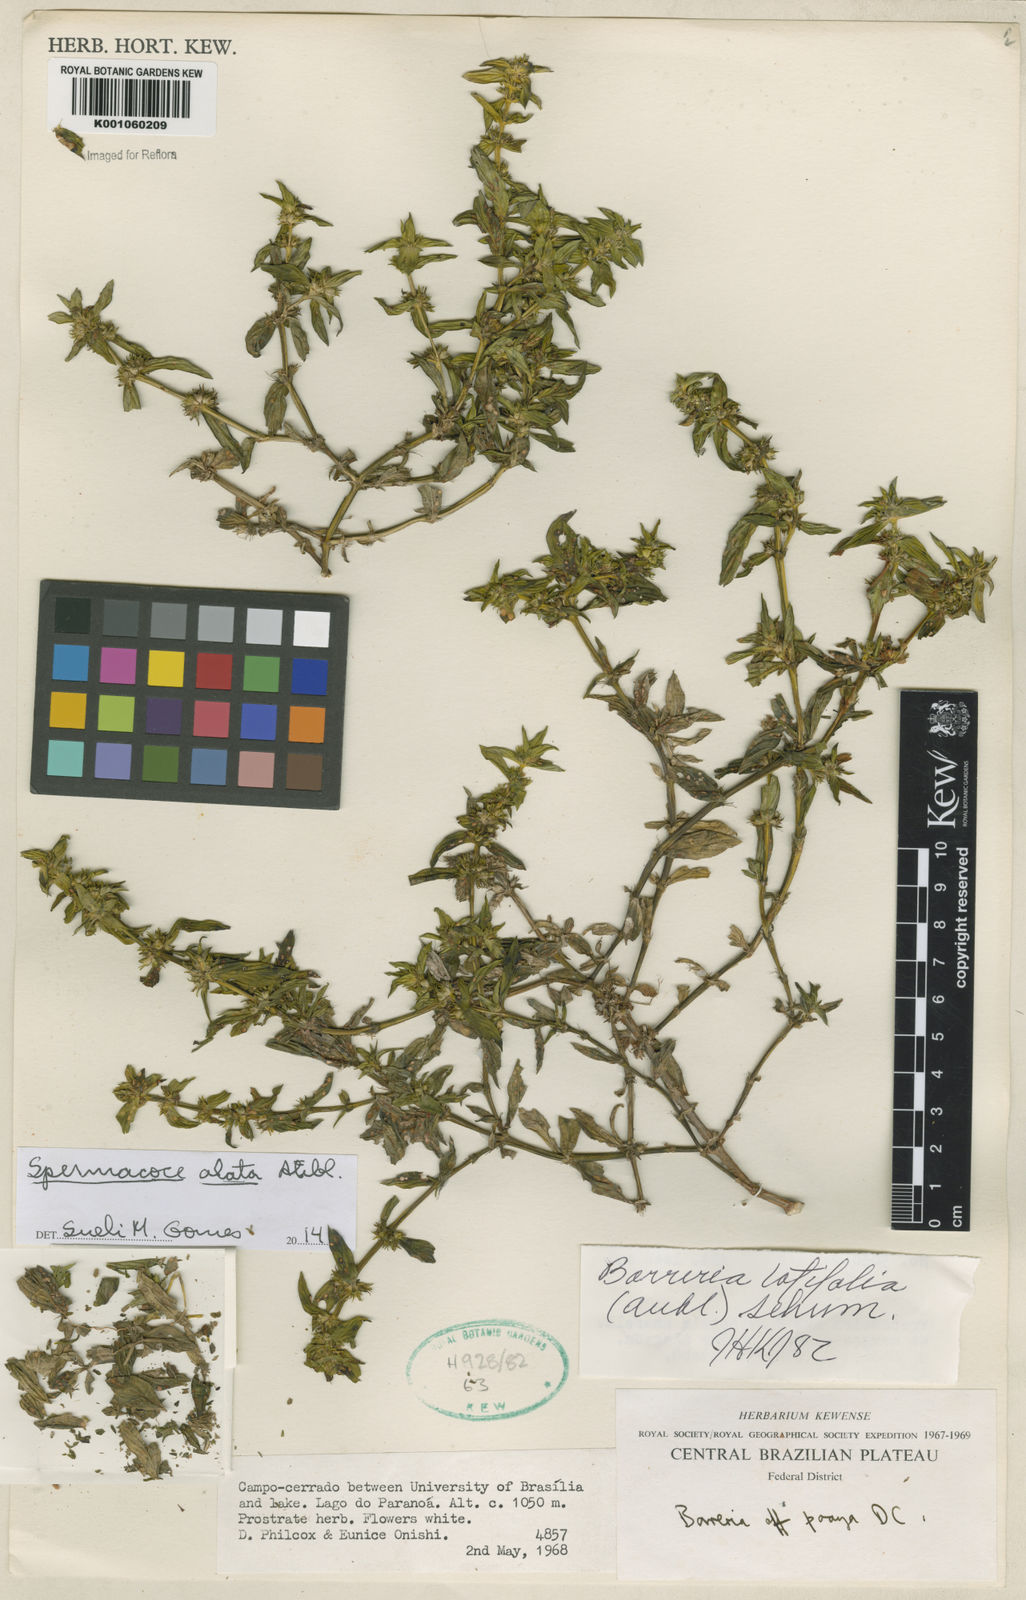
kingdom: Plantae
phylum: Tracheophyta
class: Magnoliopsida
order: Gentianales
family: Rubiaceae
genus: Spermacoce
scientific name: Spermacoce
